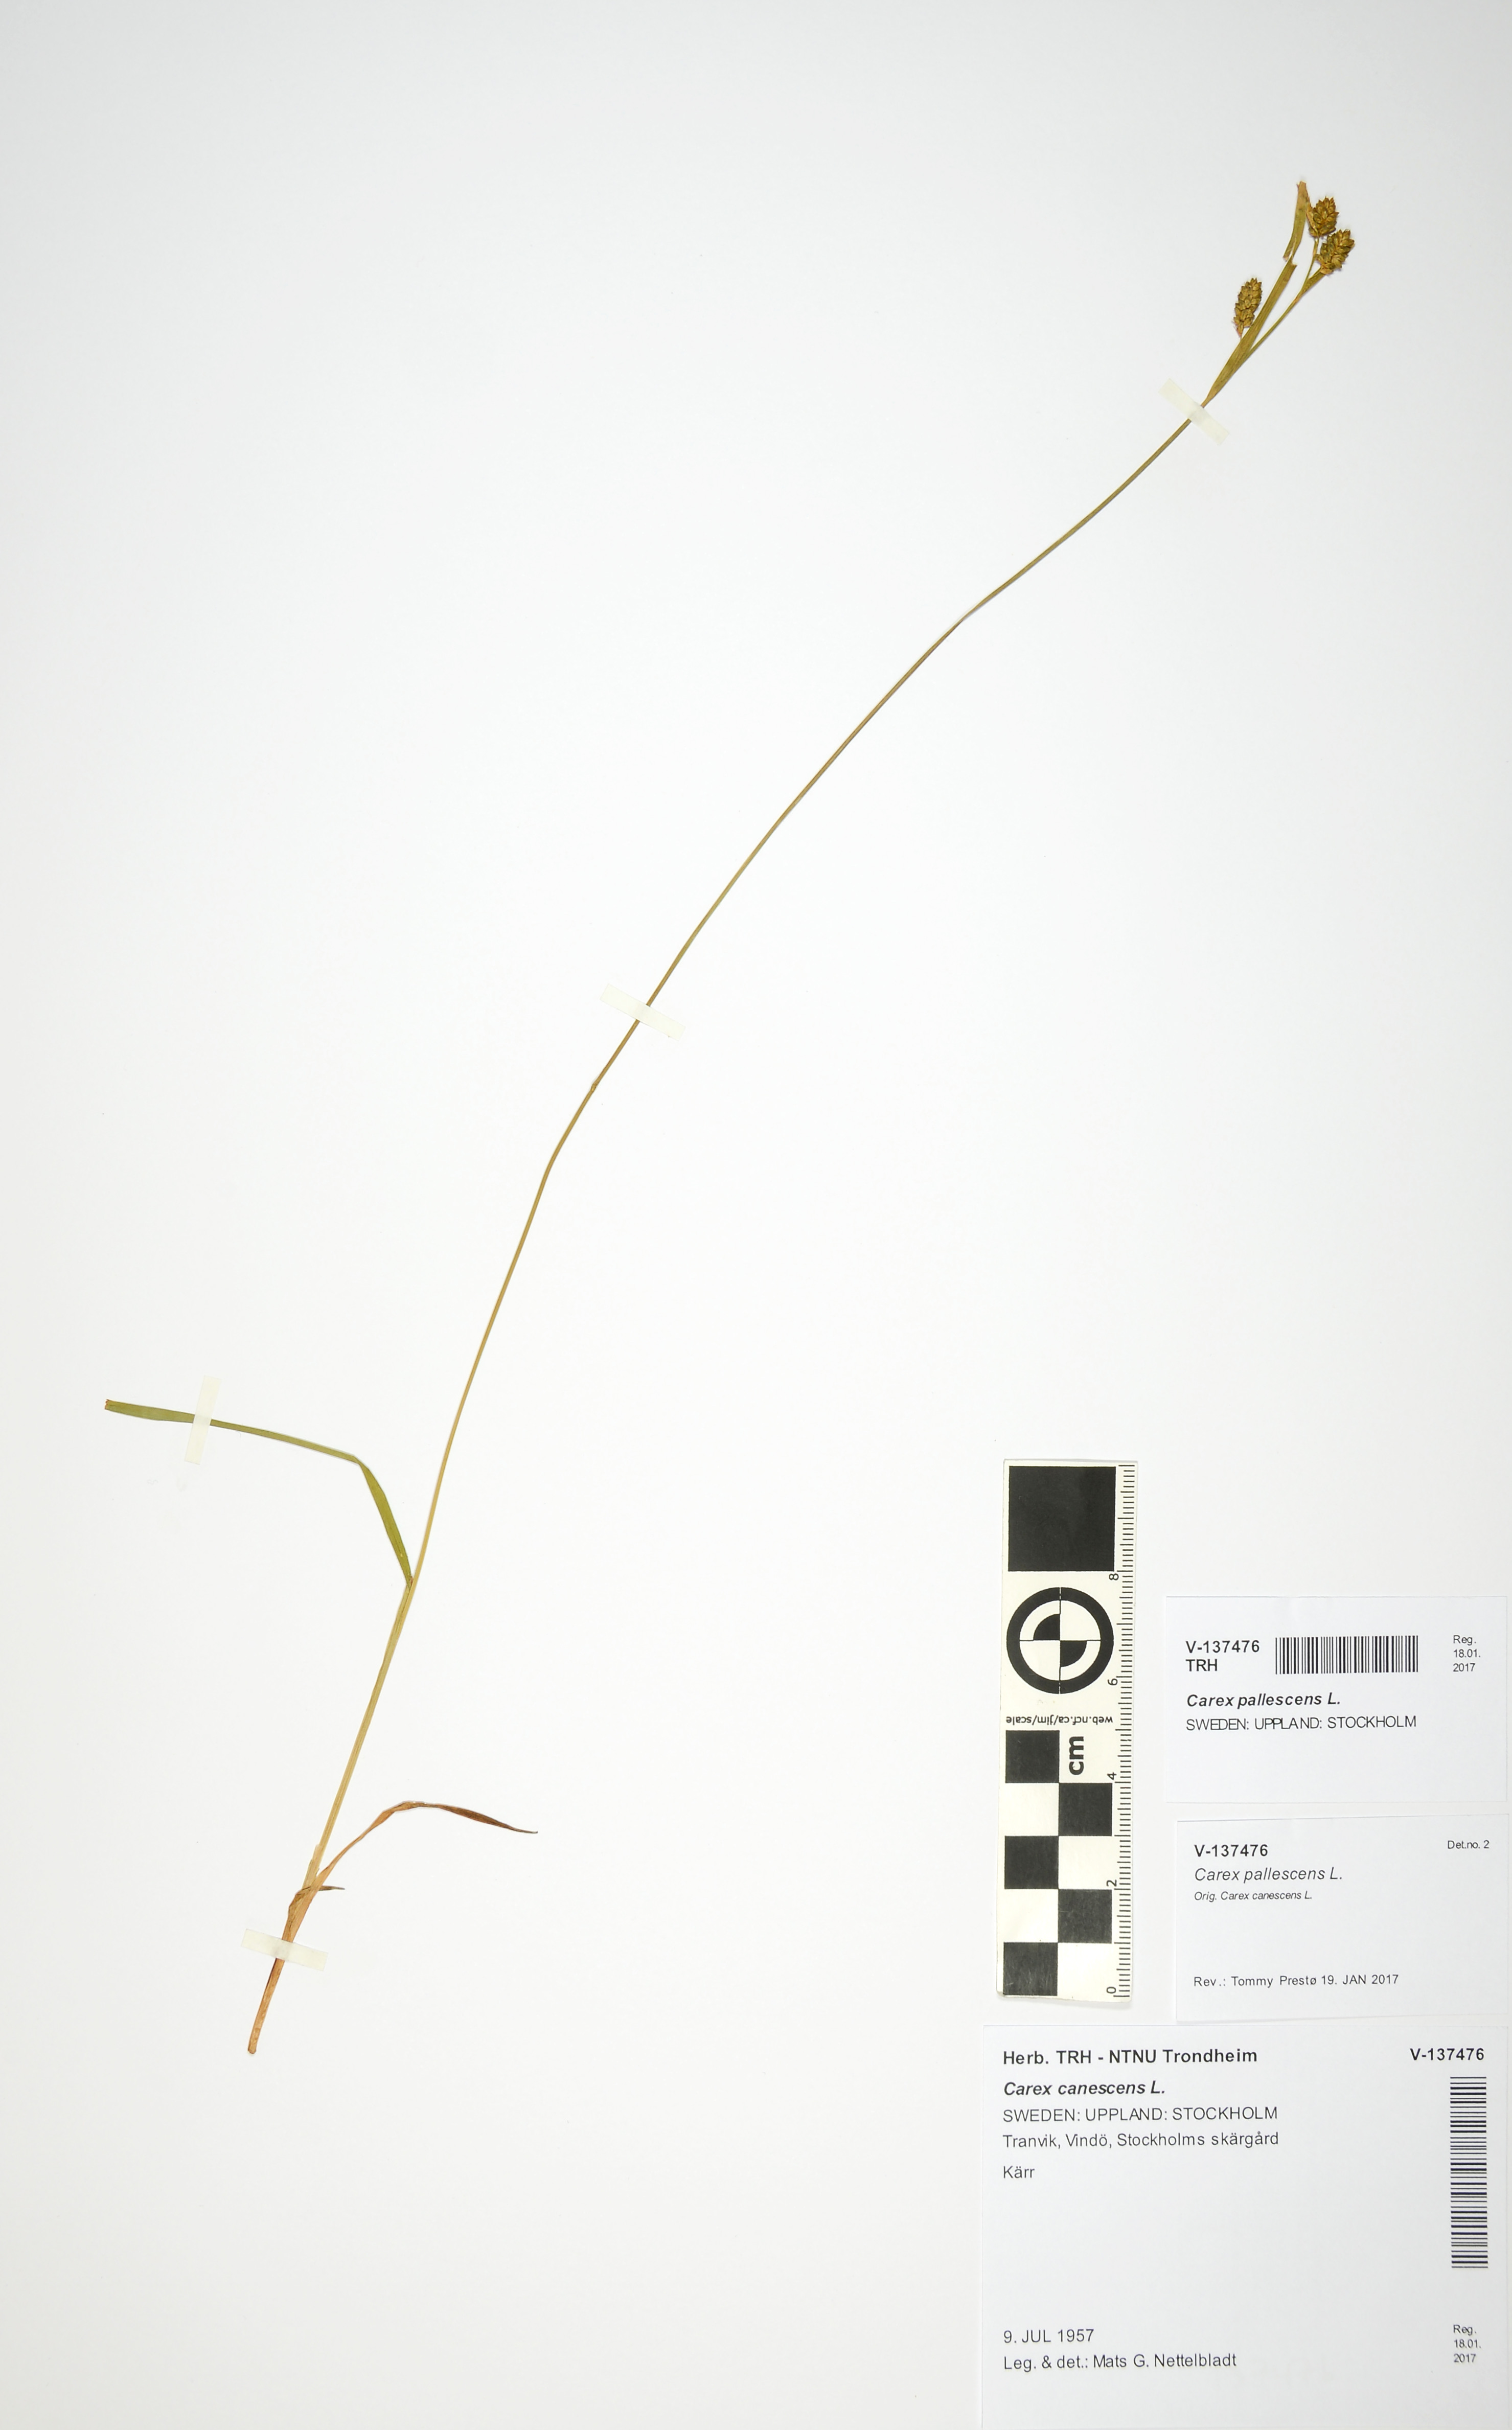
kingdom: Plantae
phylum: Tracheophyta
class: Liliopsida
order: Poales
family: Cyperaceae
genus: Carex
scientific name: Carex pallescens
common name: Pale sedge
